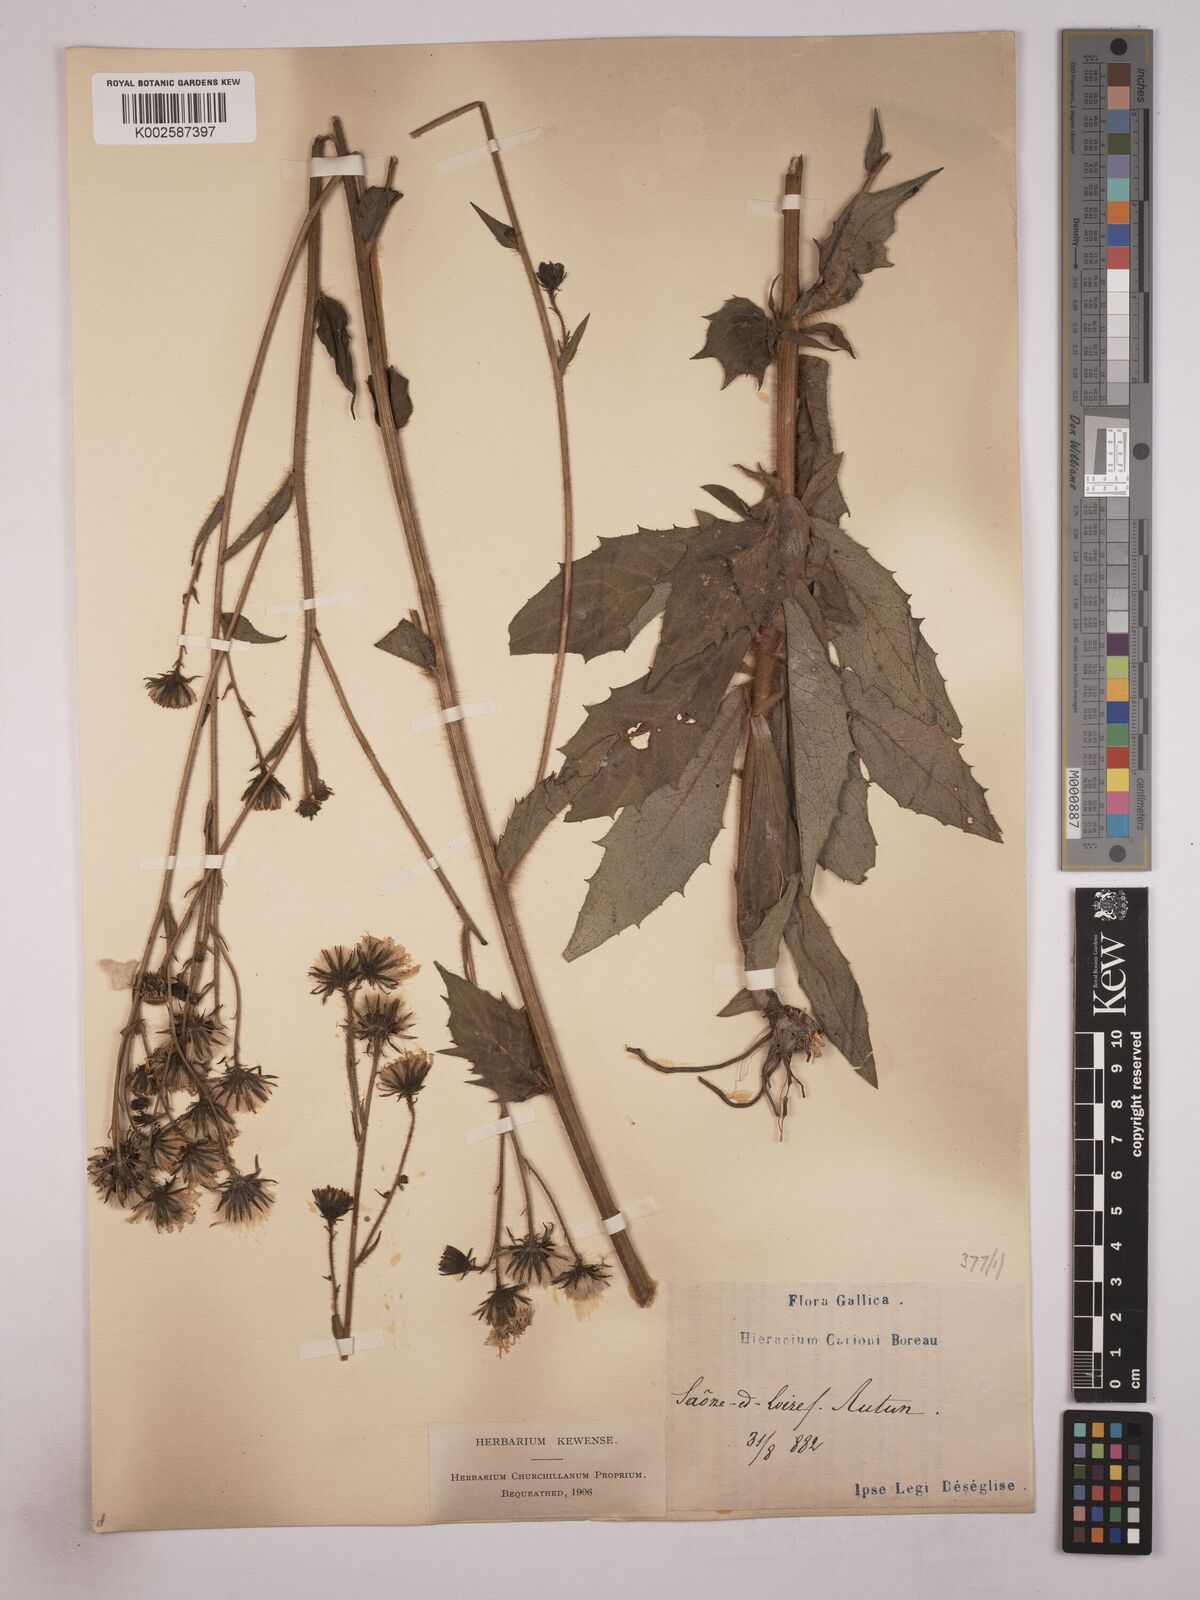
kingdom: Plantae
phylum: Tracheophyta
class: Magnoliopsida
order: Asterales
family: Asteraceae
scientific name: Asteraceae
